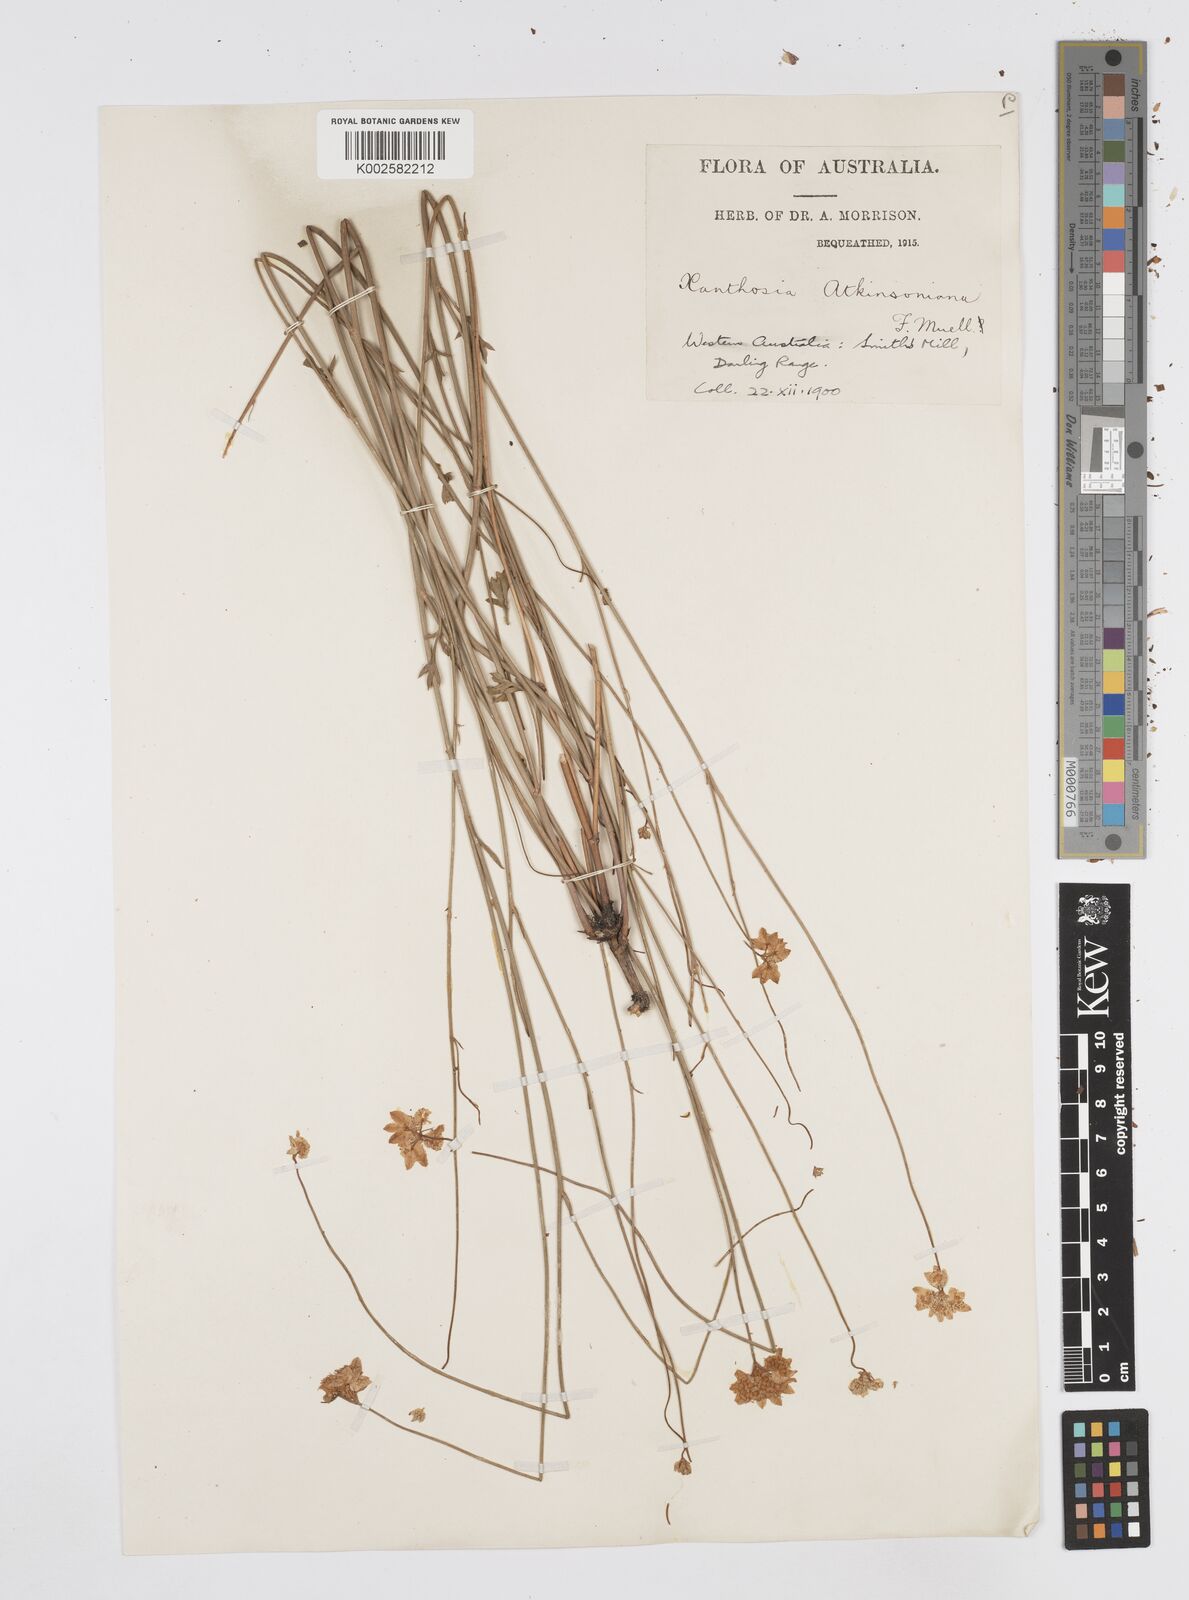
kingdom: Plantae
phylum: Tracheophyta
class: Magnoliopsida
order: Apiales
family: Apiaceae
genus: Xanthosia
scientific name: Xanthosia atkinsoniana
